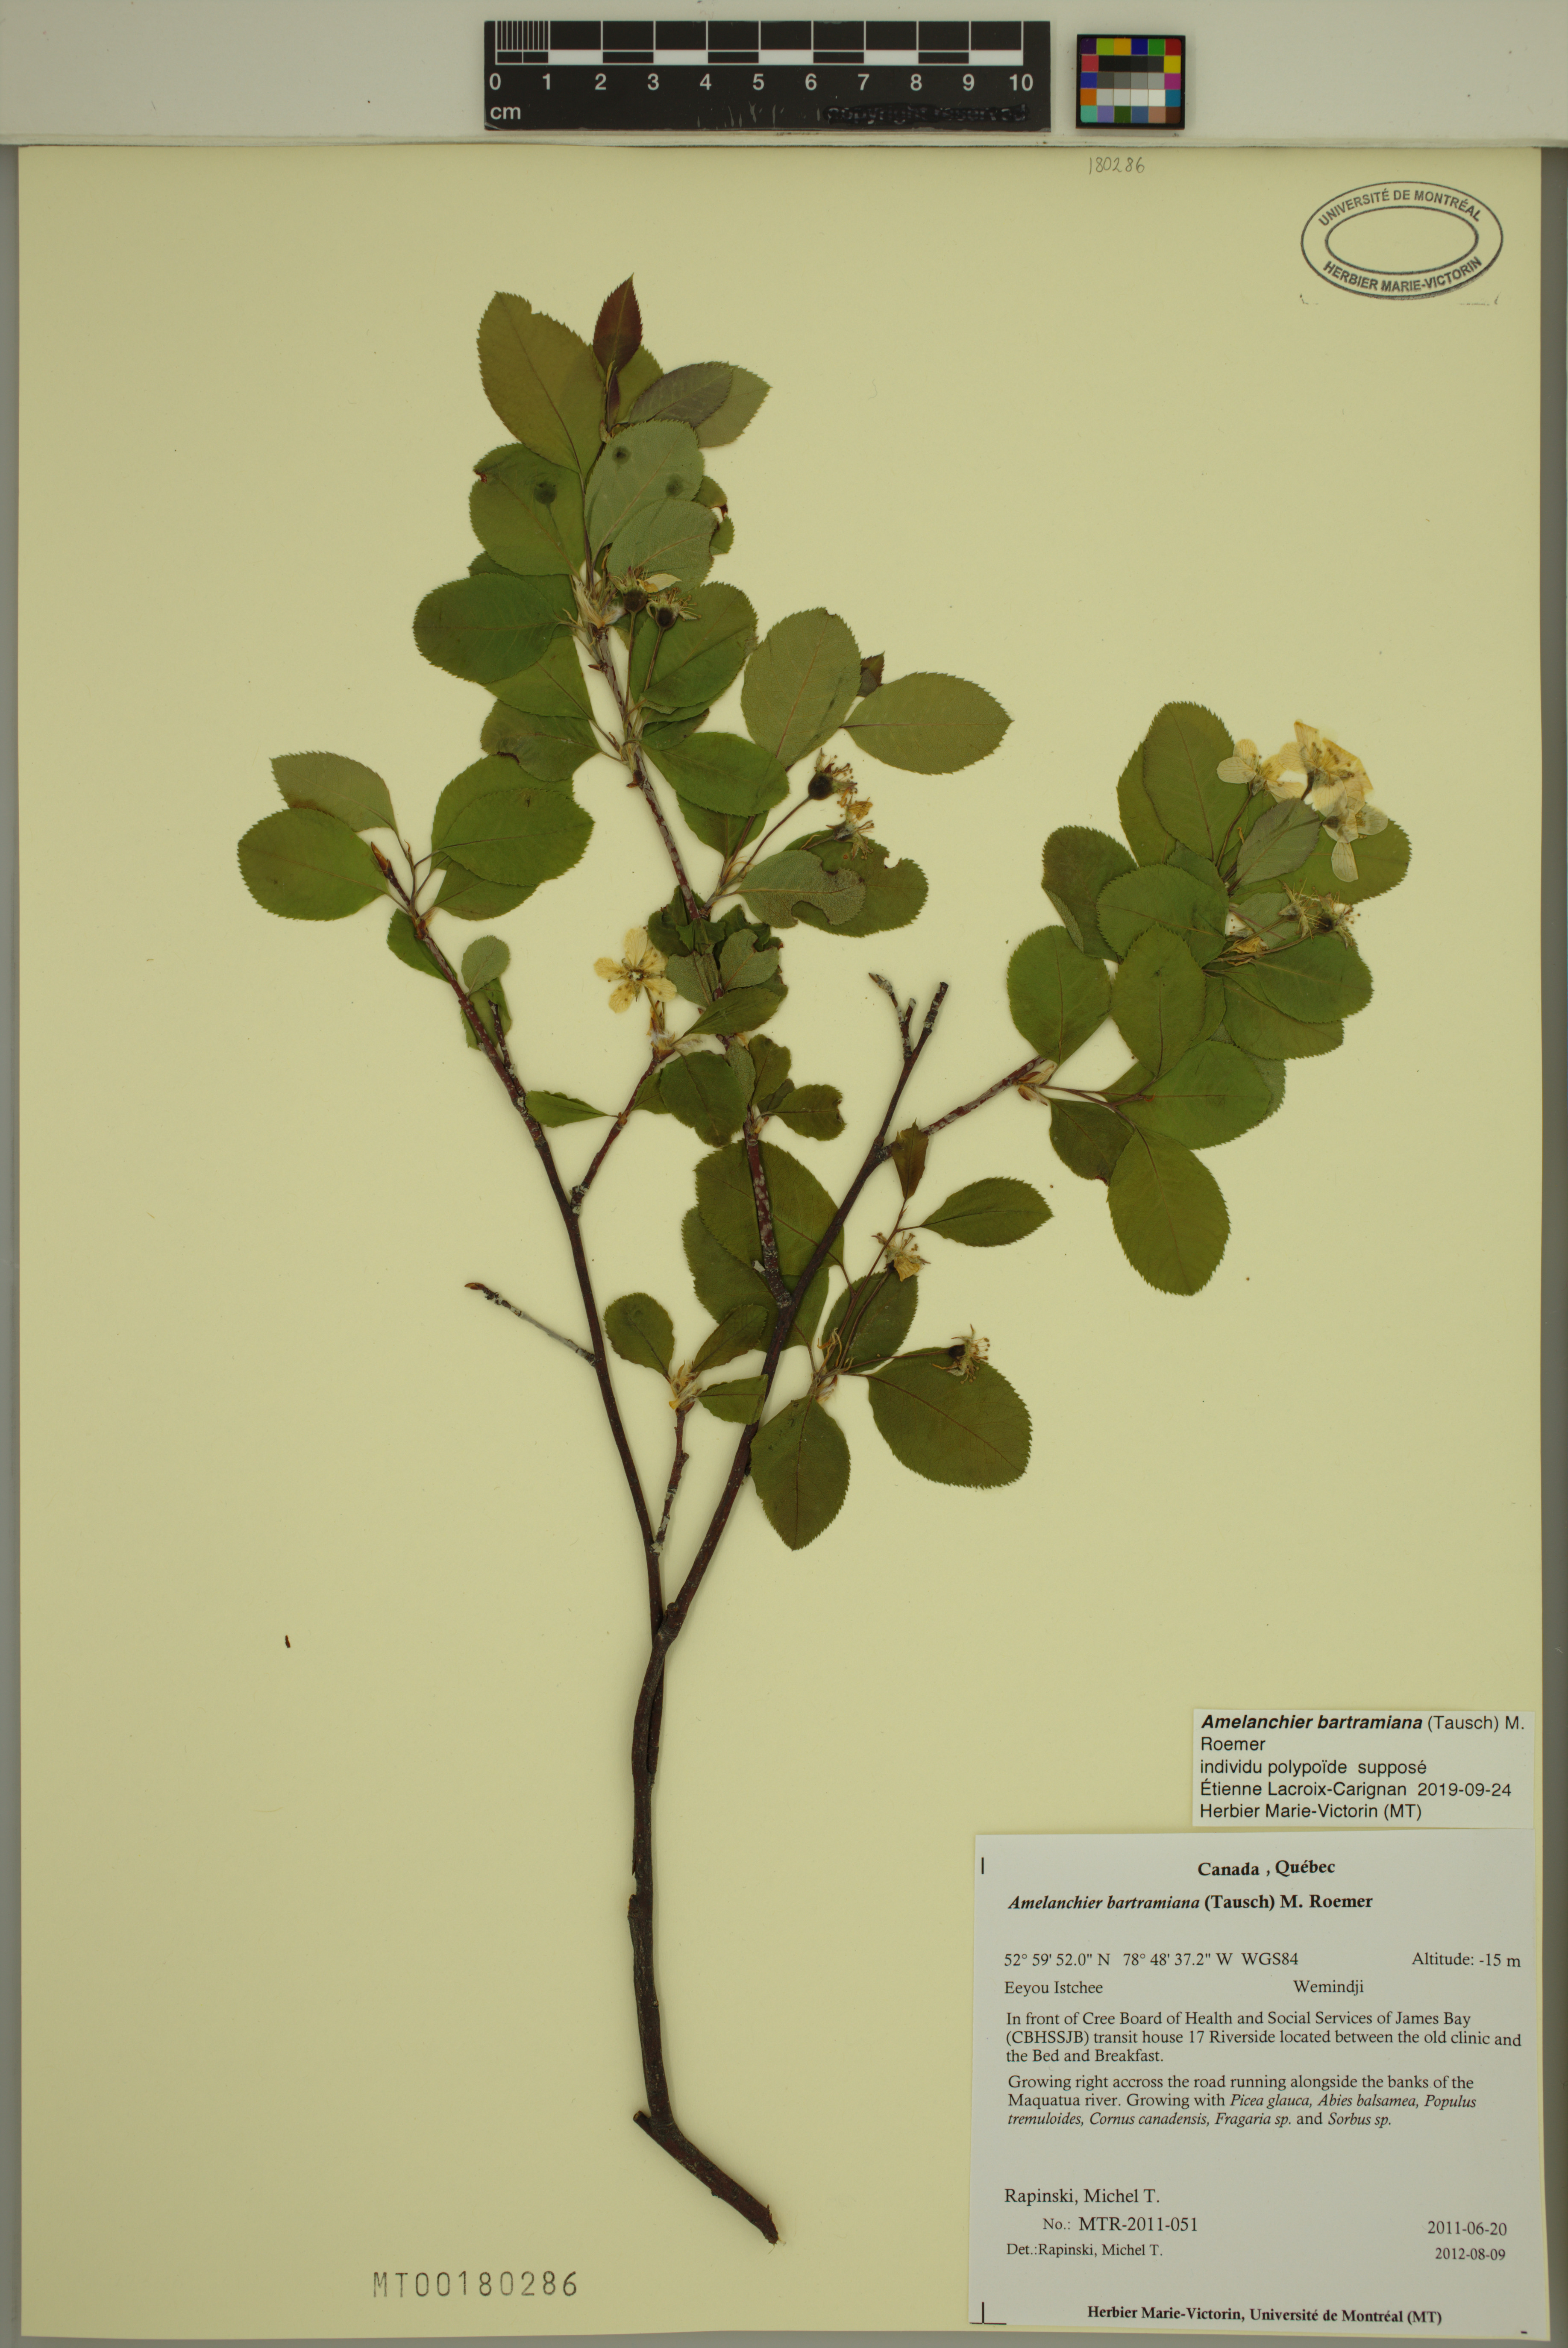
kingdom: Plantae
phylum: Tracheophyta
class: Magnoliopsida
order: Rosales
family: Rosaceae
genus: Amelanchier
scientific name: Amelanchier bartramiana
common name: Mountain serviceberry
